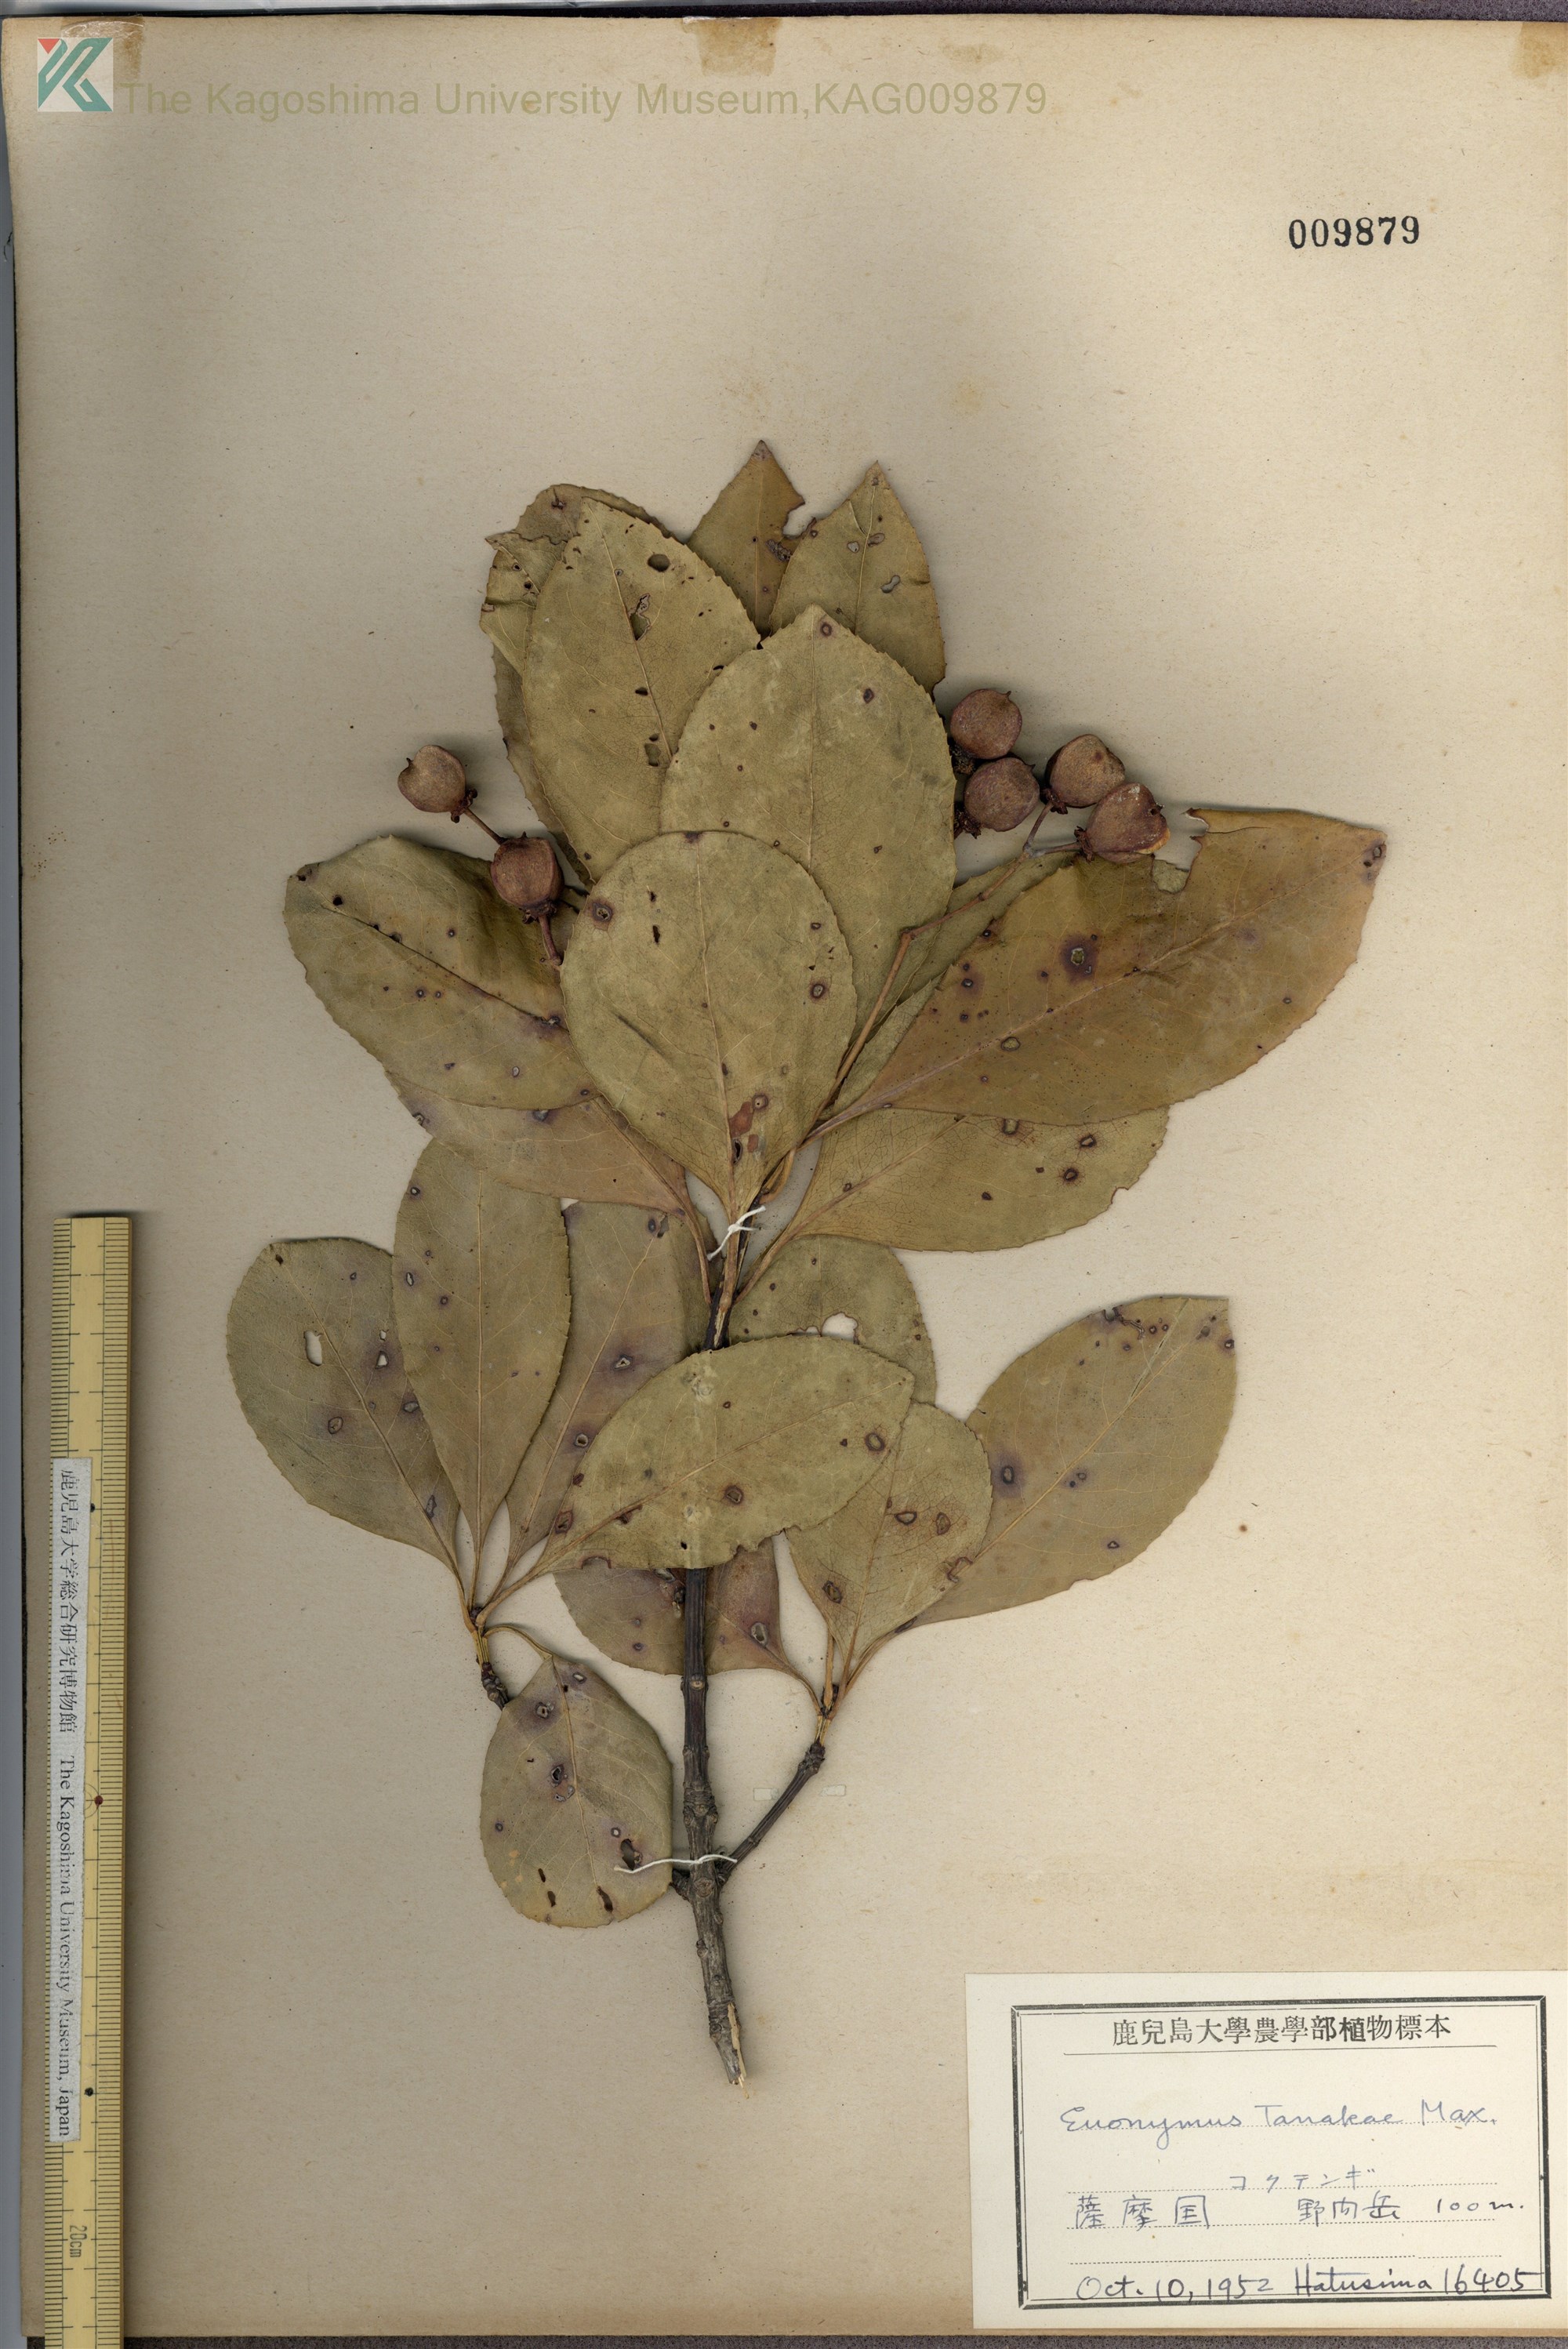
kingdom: Plantae
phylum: Tracheophyta
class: Magnoliopsida
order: Celastrales
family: Celastraceae
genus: Euonymus
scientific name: Euonymus carnosus
